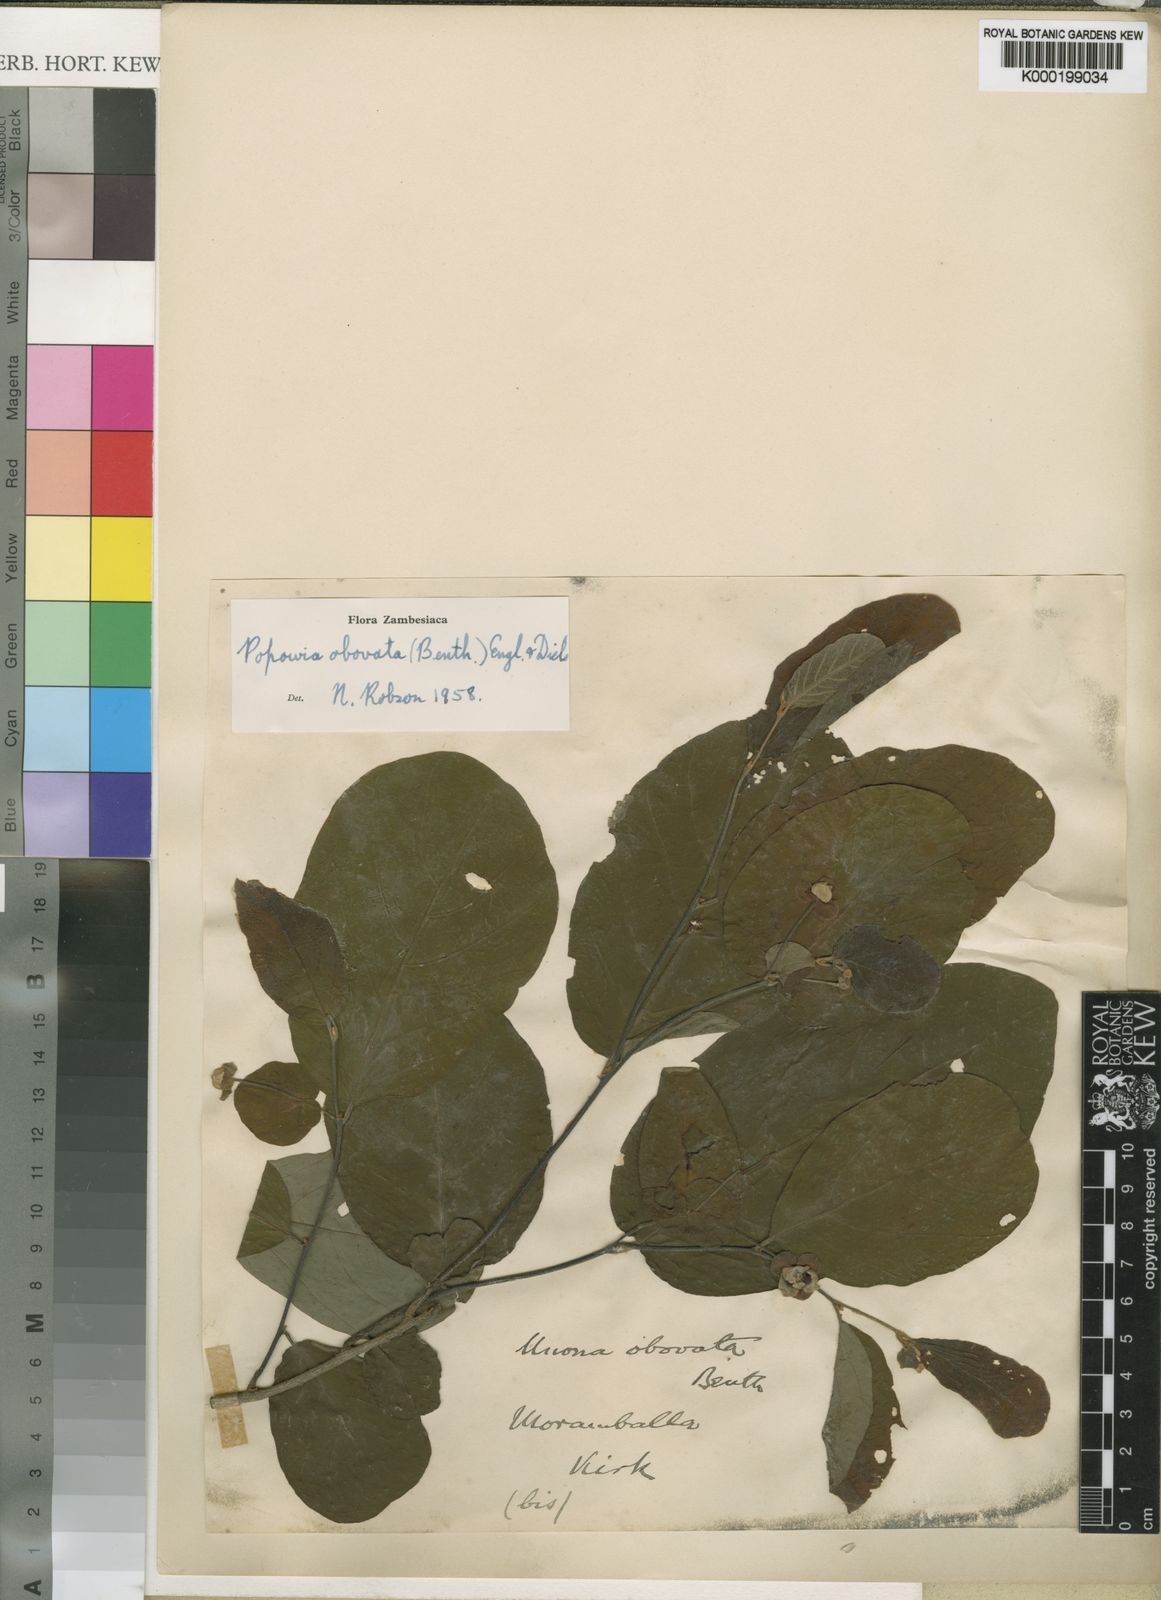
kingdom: Plantae
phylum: Tracheophyta
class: Magnoliopsida
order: Magnoliales
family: Annonaceae
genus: Friesodielsia
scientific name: Friesodielsia obovata
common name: Monkey fingers
